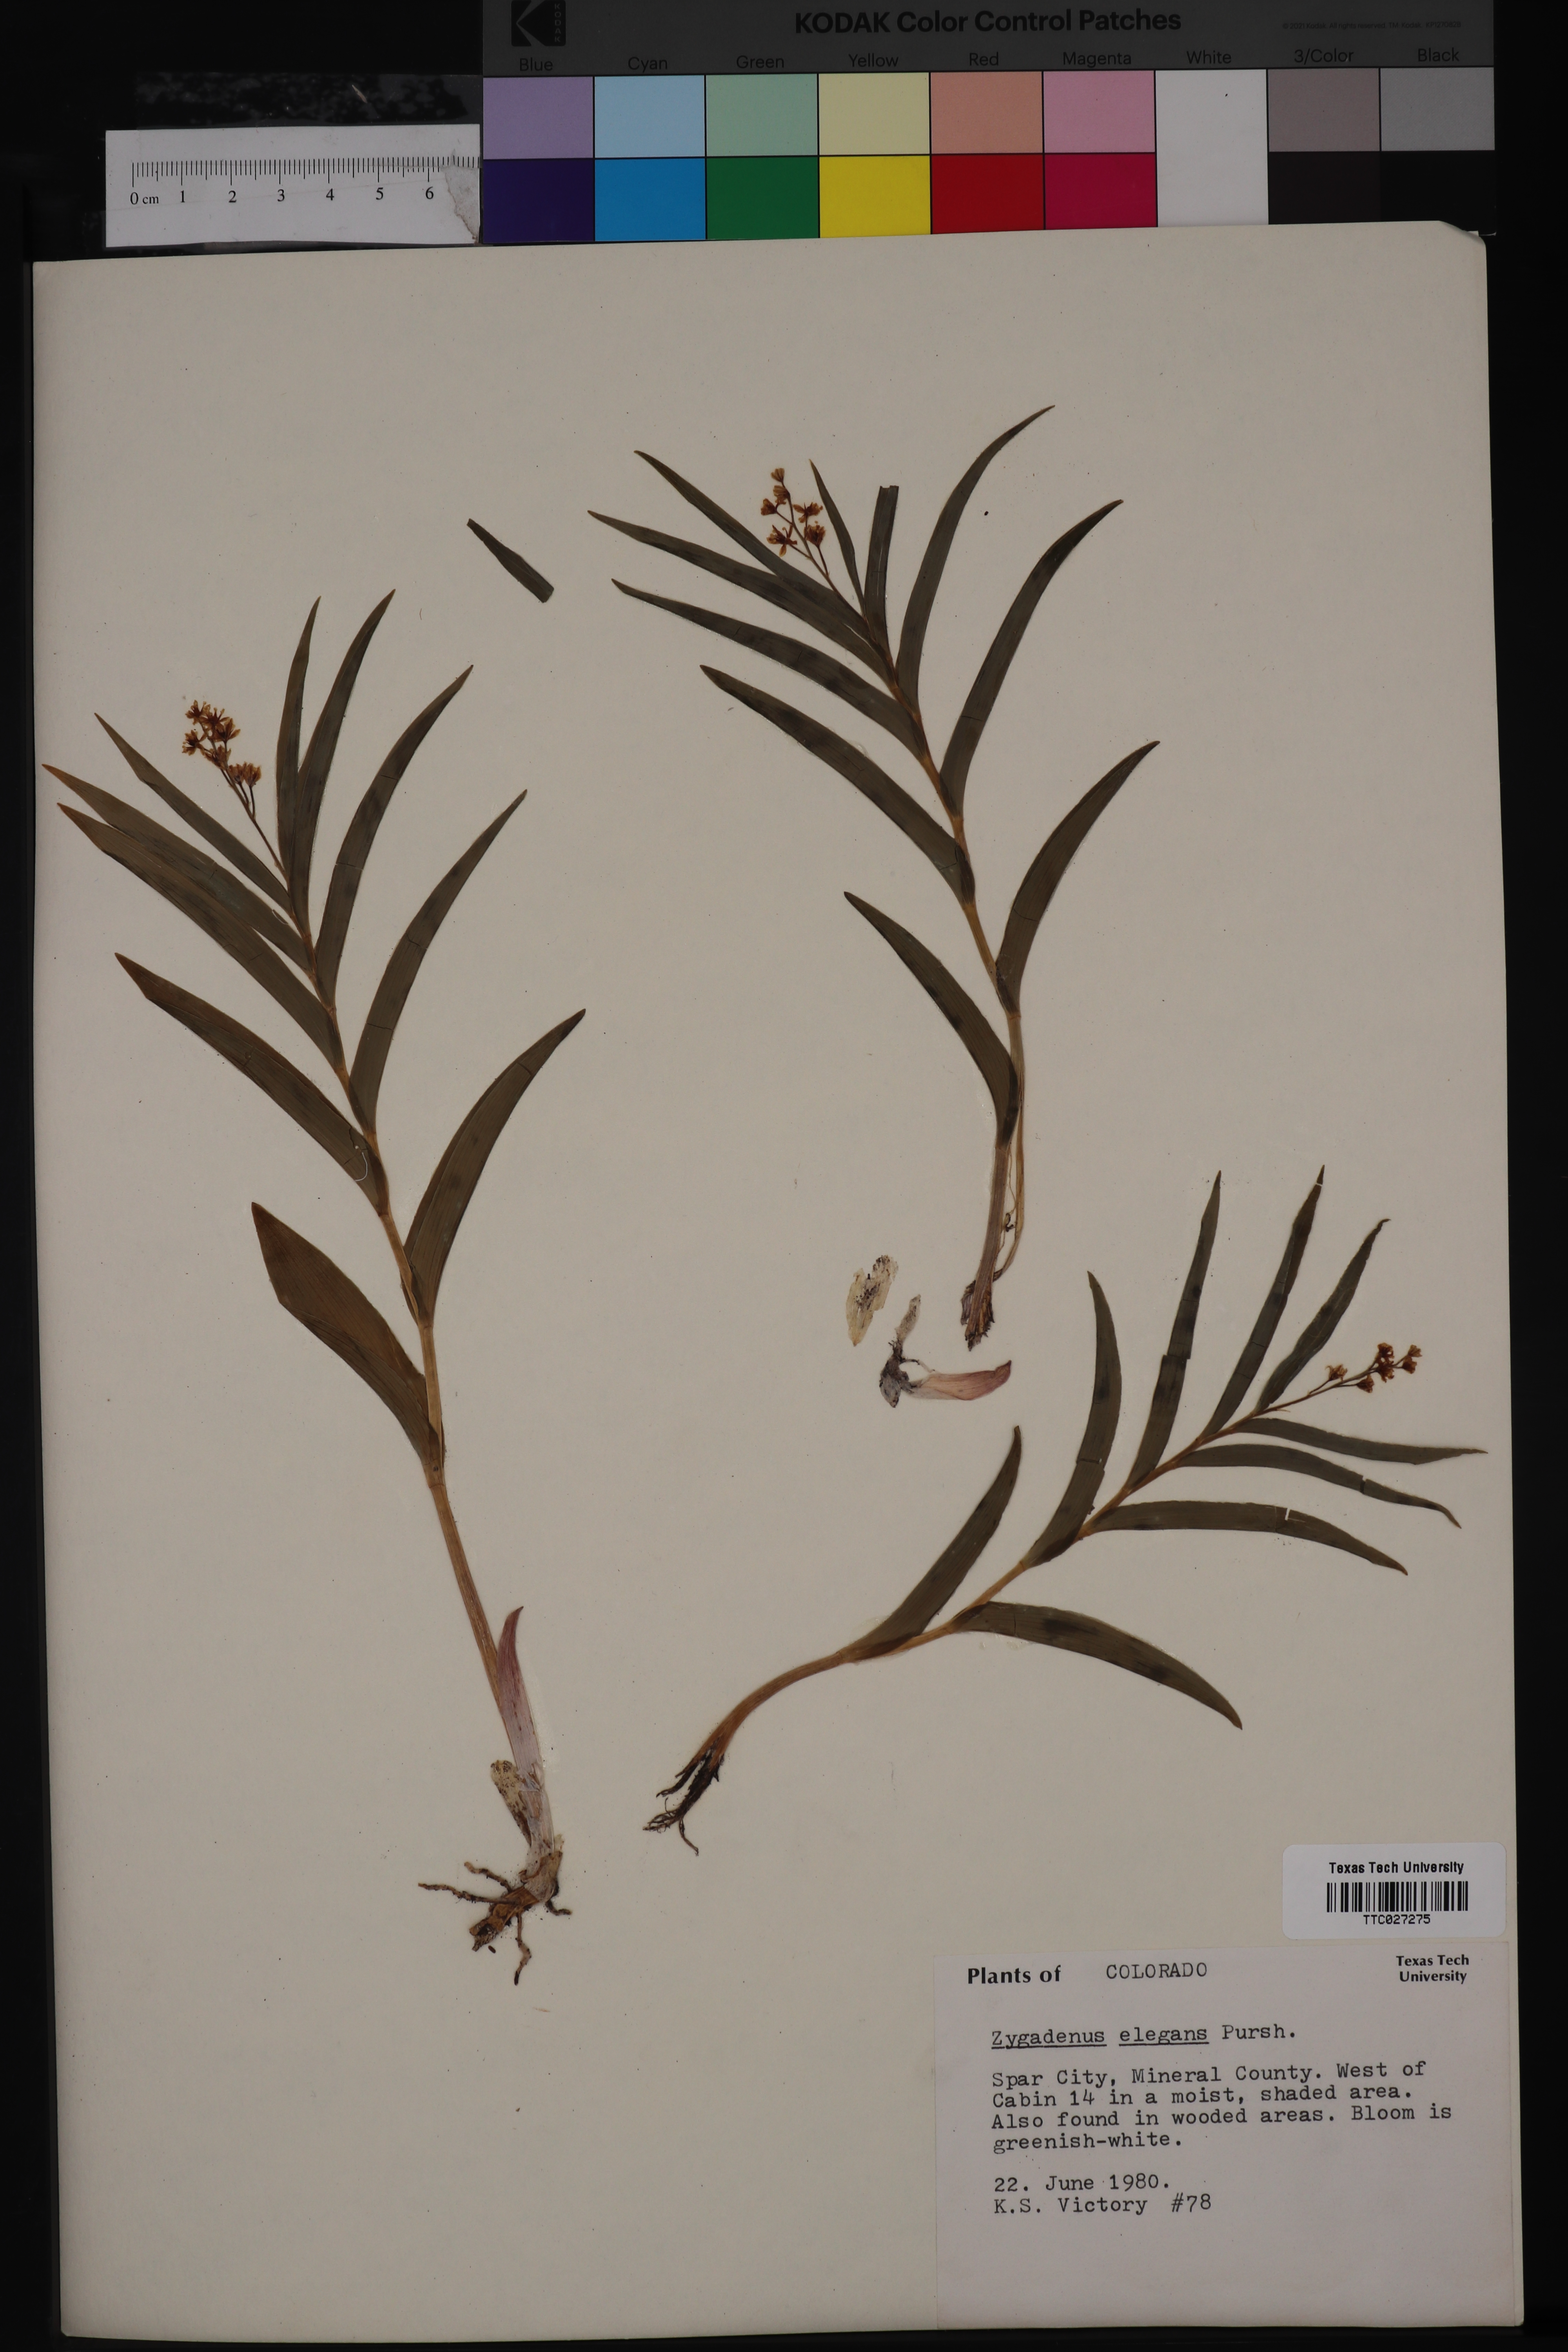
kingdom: Plantae
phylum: Tracheophyta
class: Liliopsida
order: Liliales
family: Melanthiaceae
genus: Anticlea
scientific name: Anticlea elegans
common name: Mountain death camas
